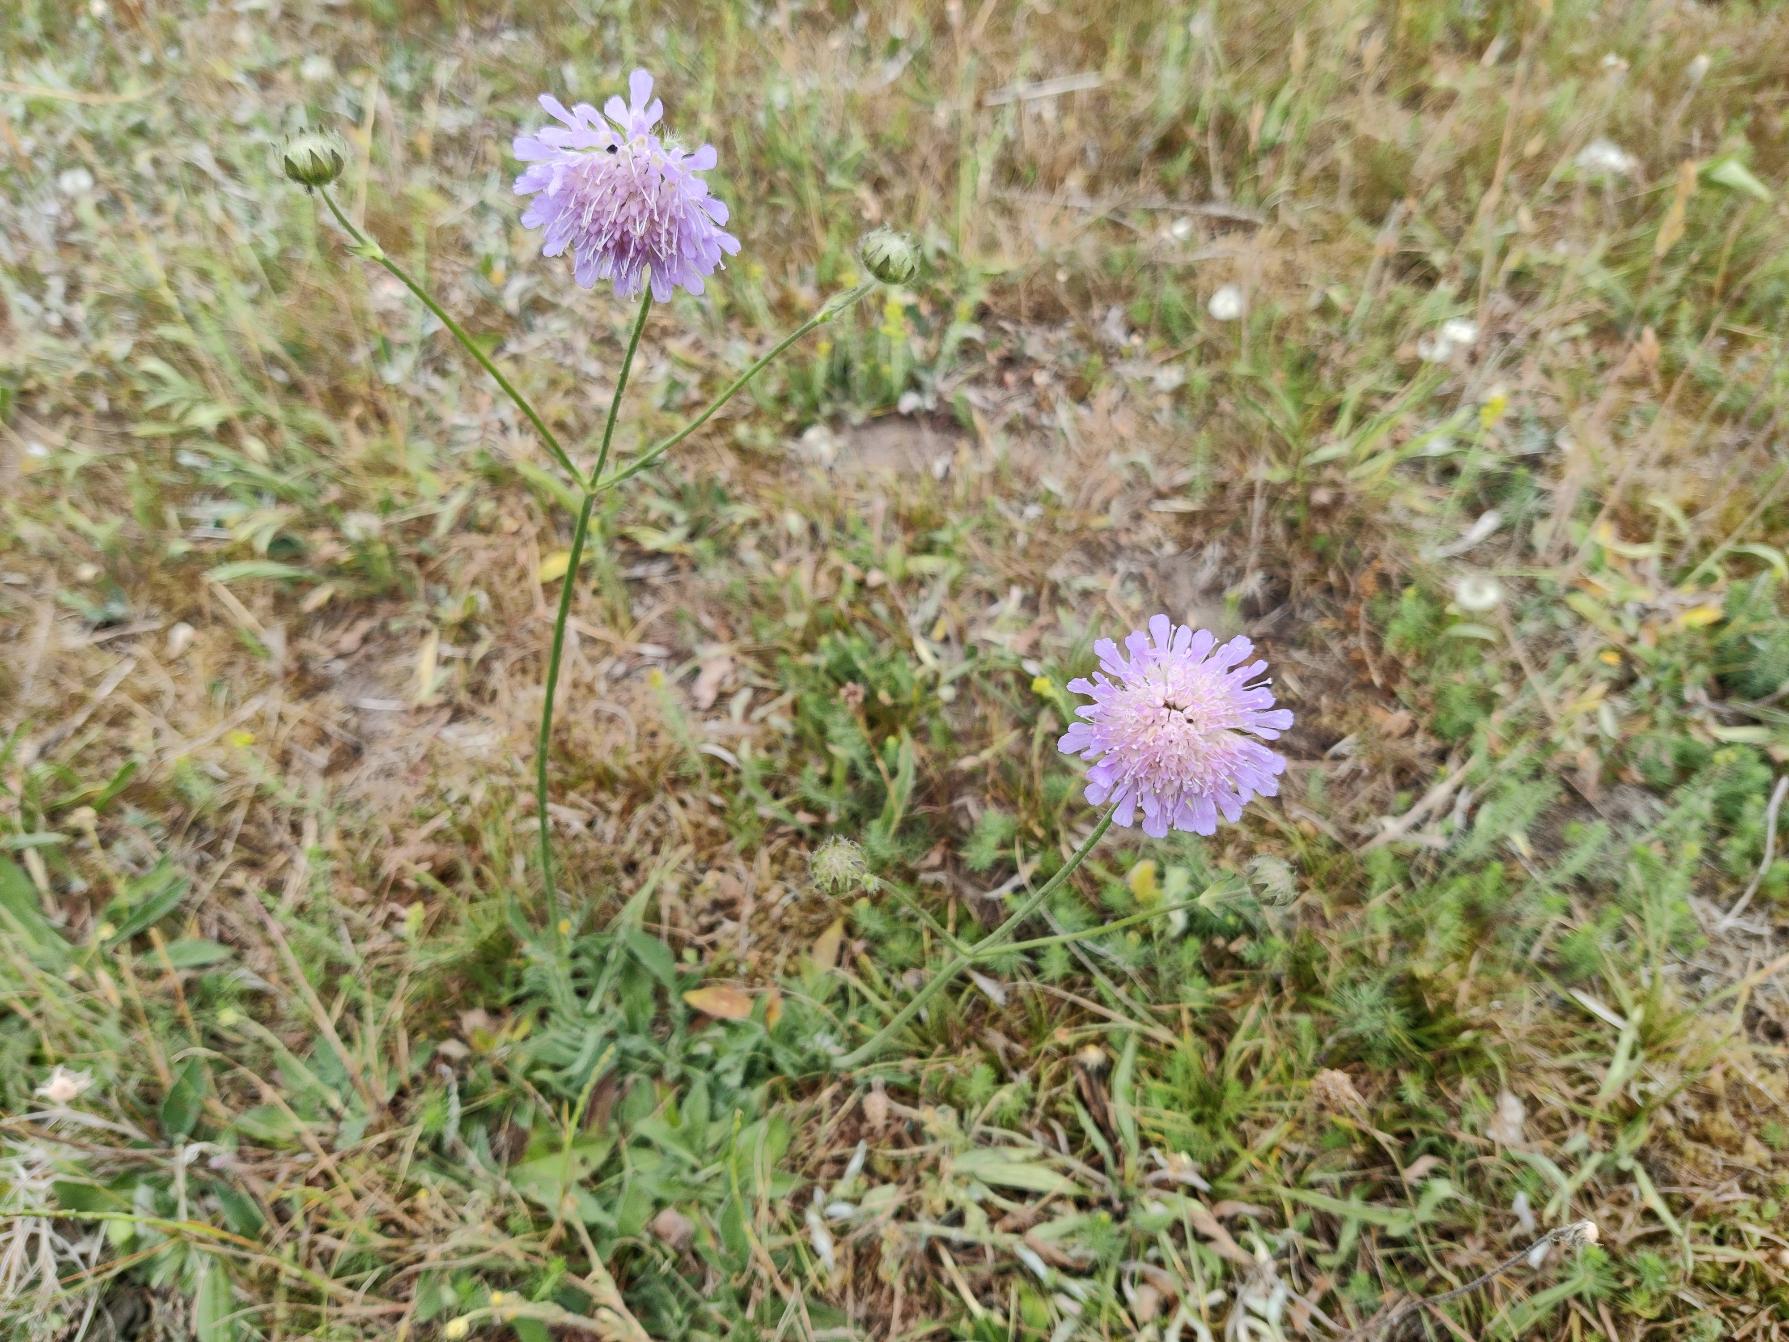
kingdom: Plantae
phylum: Tracheophyta
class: Magnoliopsida
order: Dipsacales
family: Caprifoliaceae
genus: Knautia
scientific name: Knautia arvensis
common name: Blåhat
